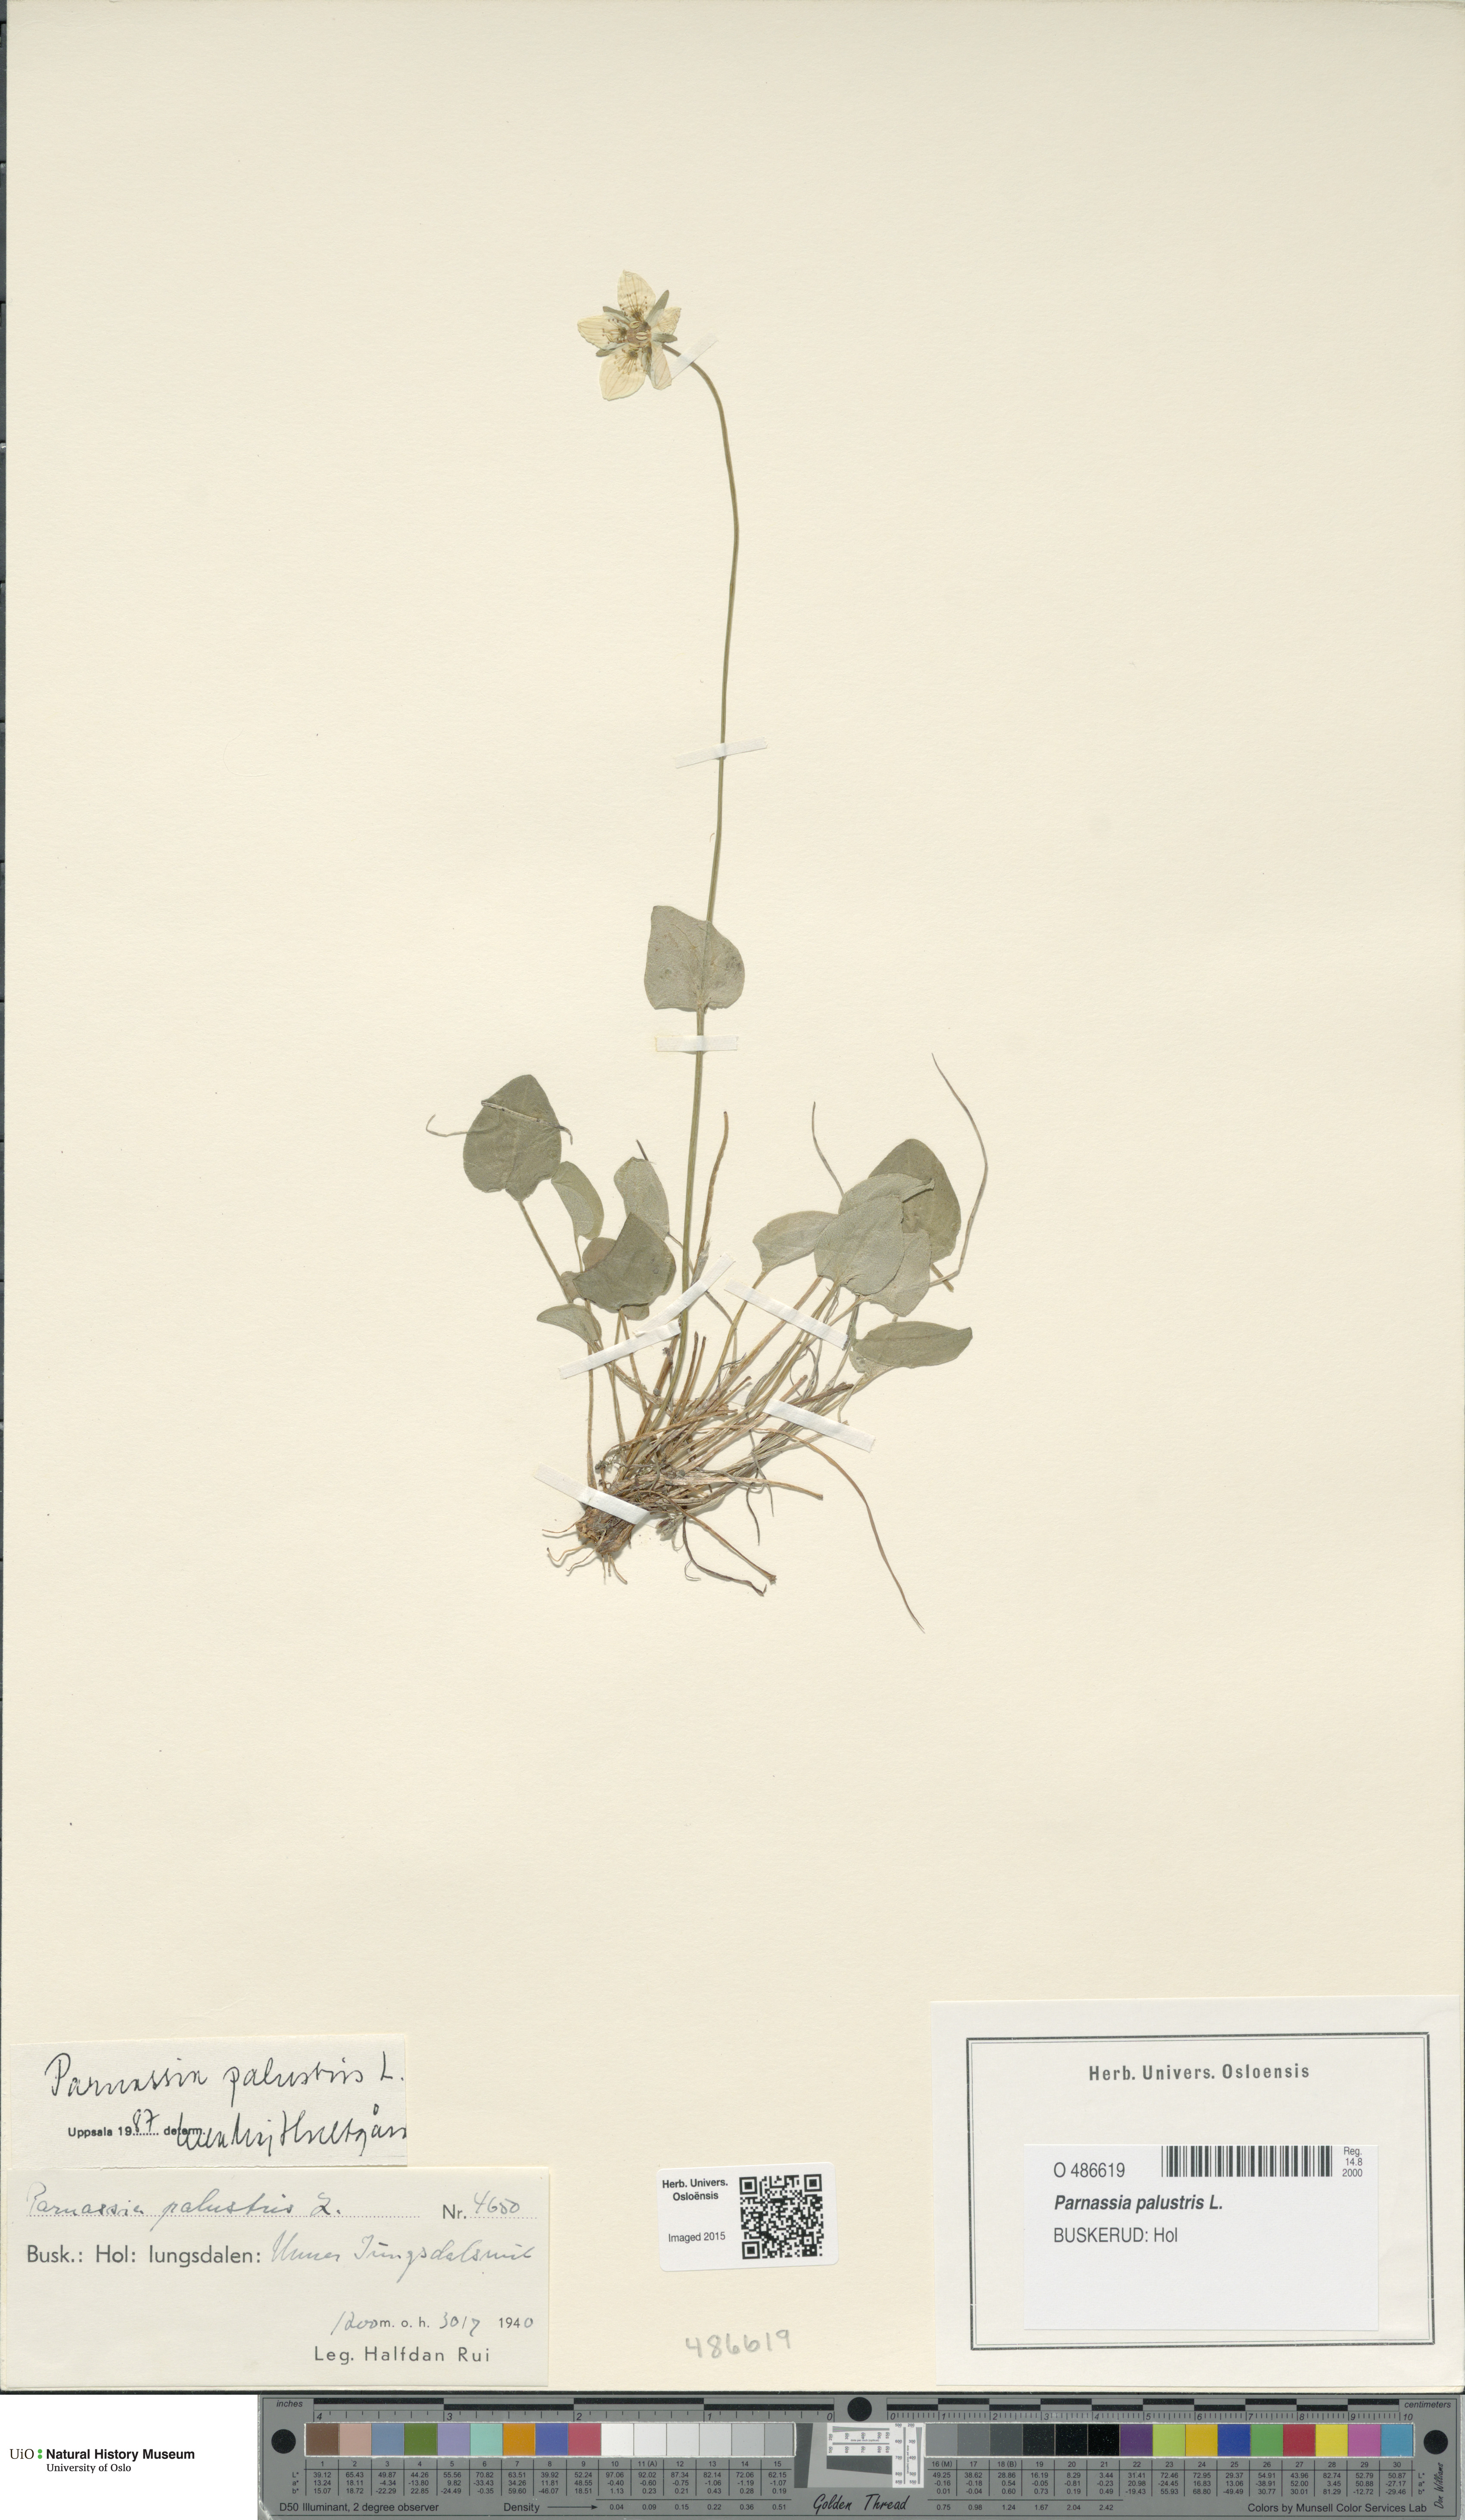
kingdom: Plantae
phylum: Tracheophyta
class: Magnoliopsida
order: Celastrales
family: Parnassiaceae
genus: Parnassia
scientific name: Parnassia palustris
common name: Grass-of-parnassus
